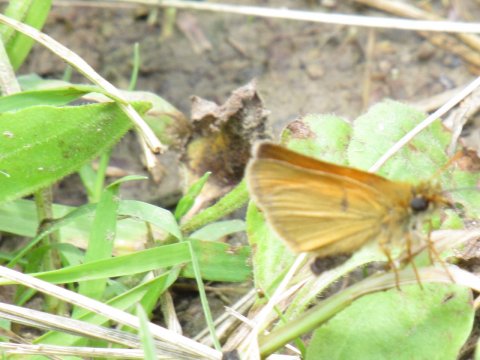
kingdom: Animalia
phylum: Arthropoda
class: Insecta
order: Lepidoptera
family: Hesperiidae
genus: Thymelicus
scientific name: Thymelicus lineola
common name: European Skipper
